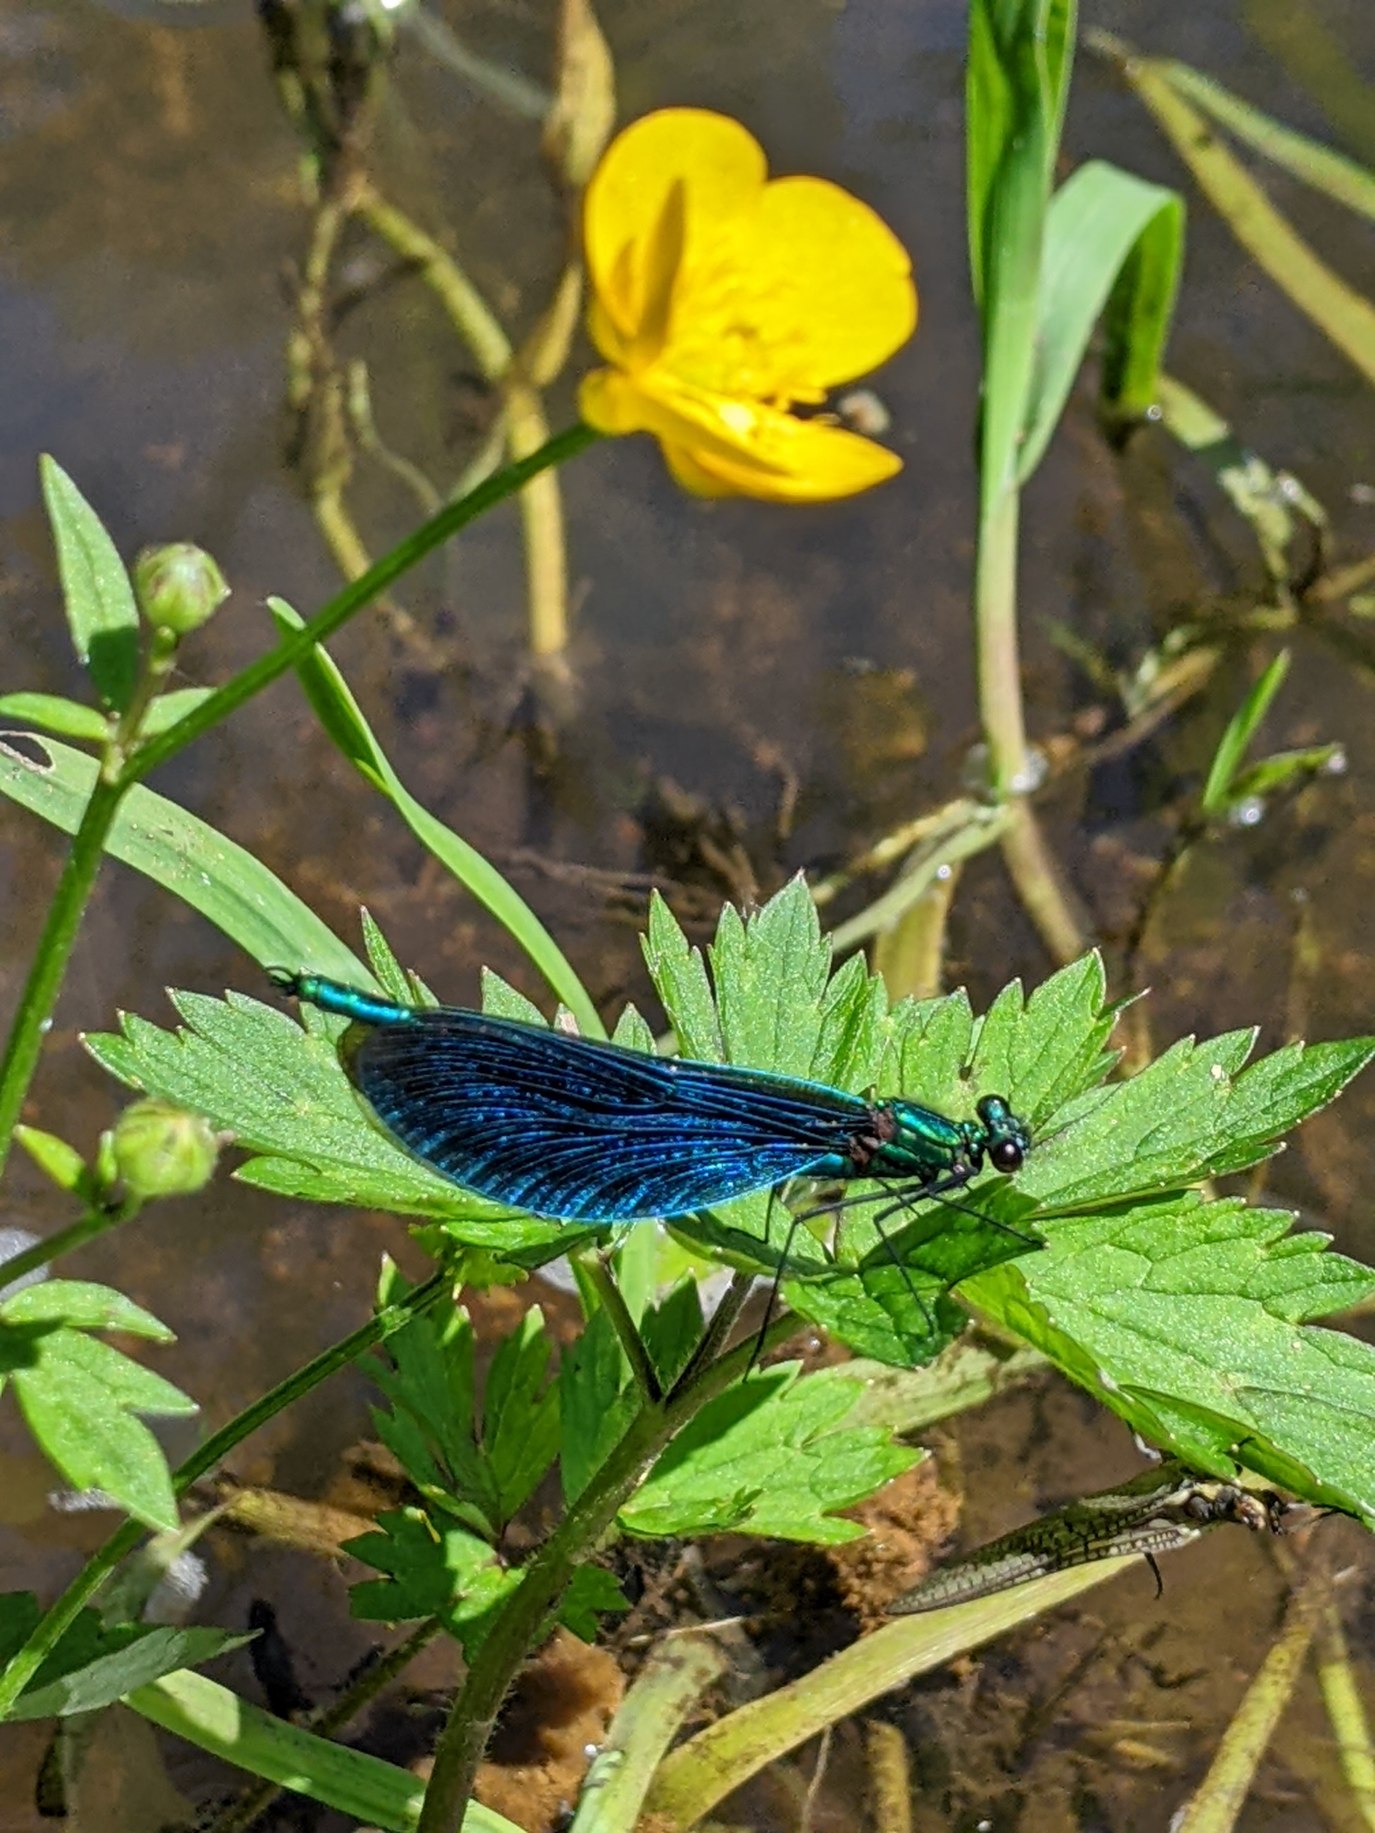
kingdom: Animalia
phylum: Arthropoda
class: Insecta
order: Odonata
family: Calopterygidae
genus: Calopteryx
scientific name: Calopteryx virgo
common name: Blåvinget pragtvandnymfe
